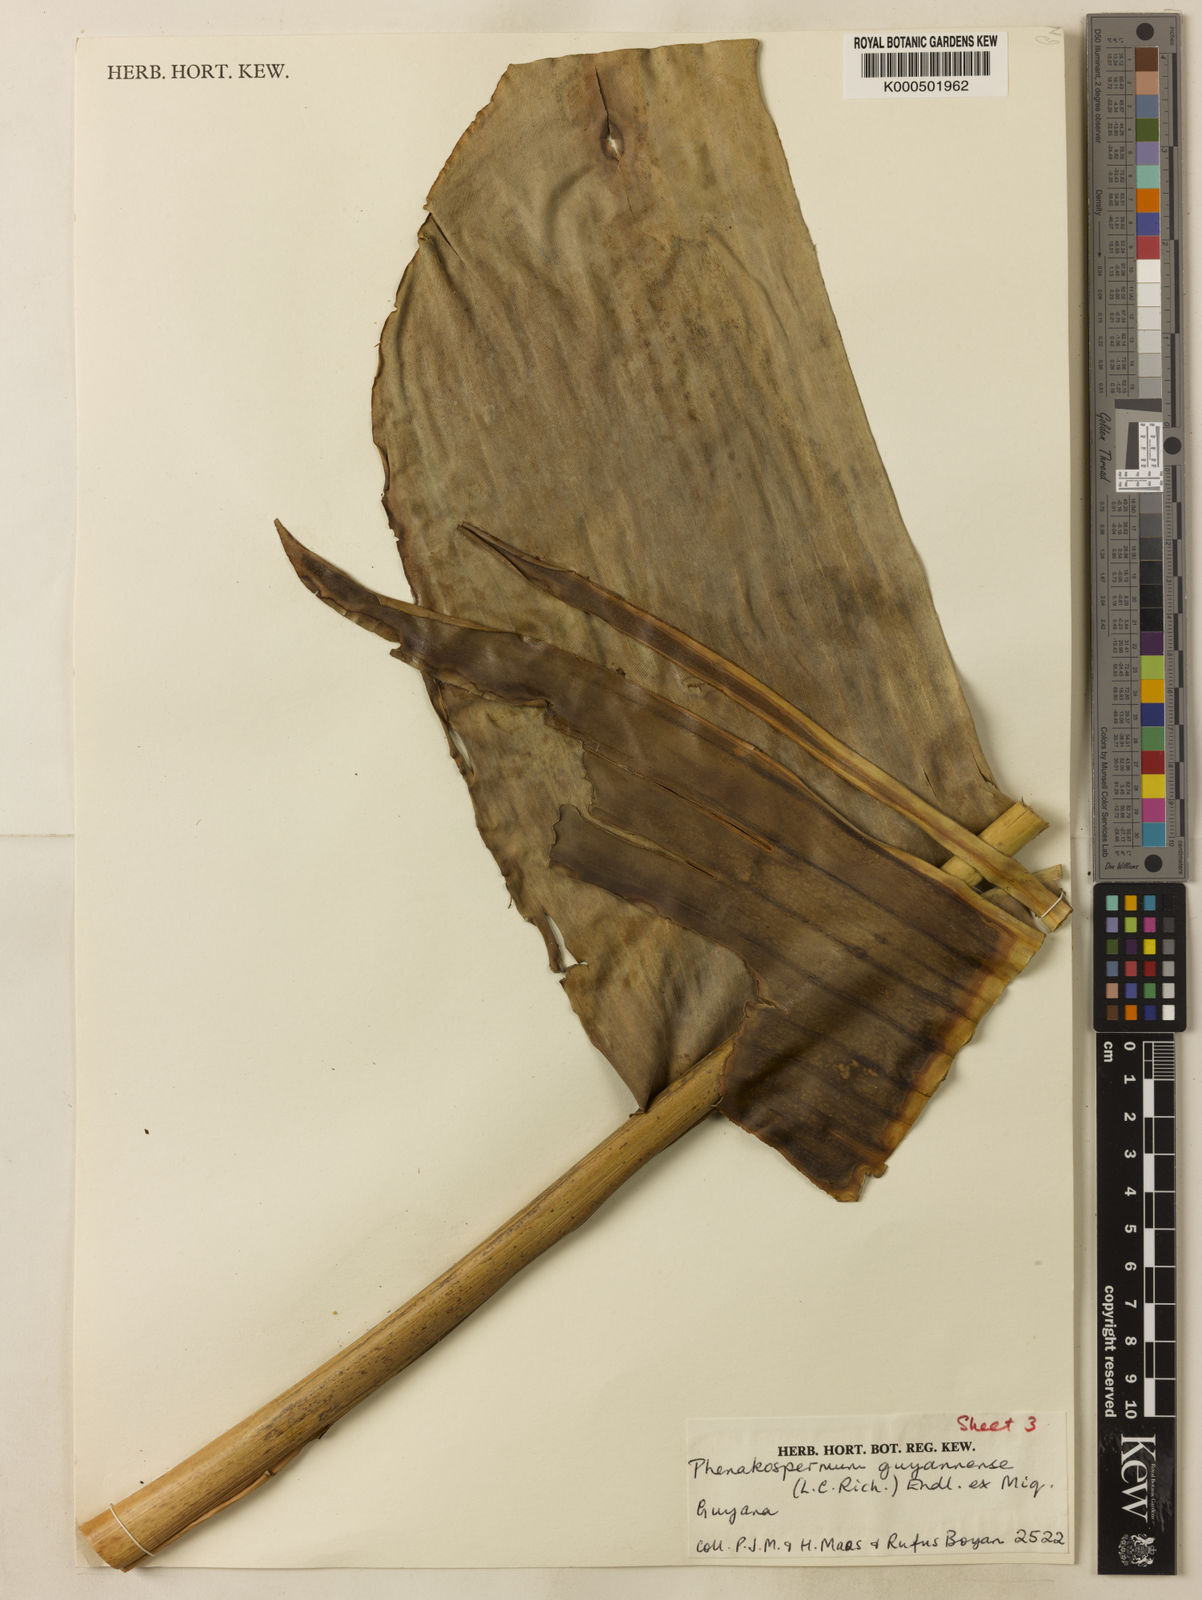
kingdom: Plantae
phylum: Tracheophyta
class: Liliopsida
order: Zingiberales
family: Strelitziaceae
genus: Phenakospermum
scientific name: Phenakospermum guyannense
